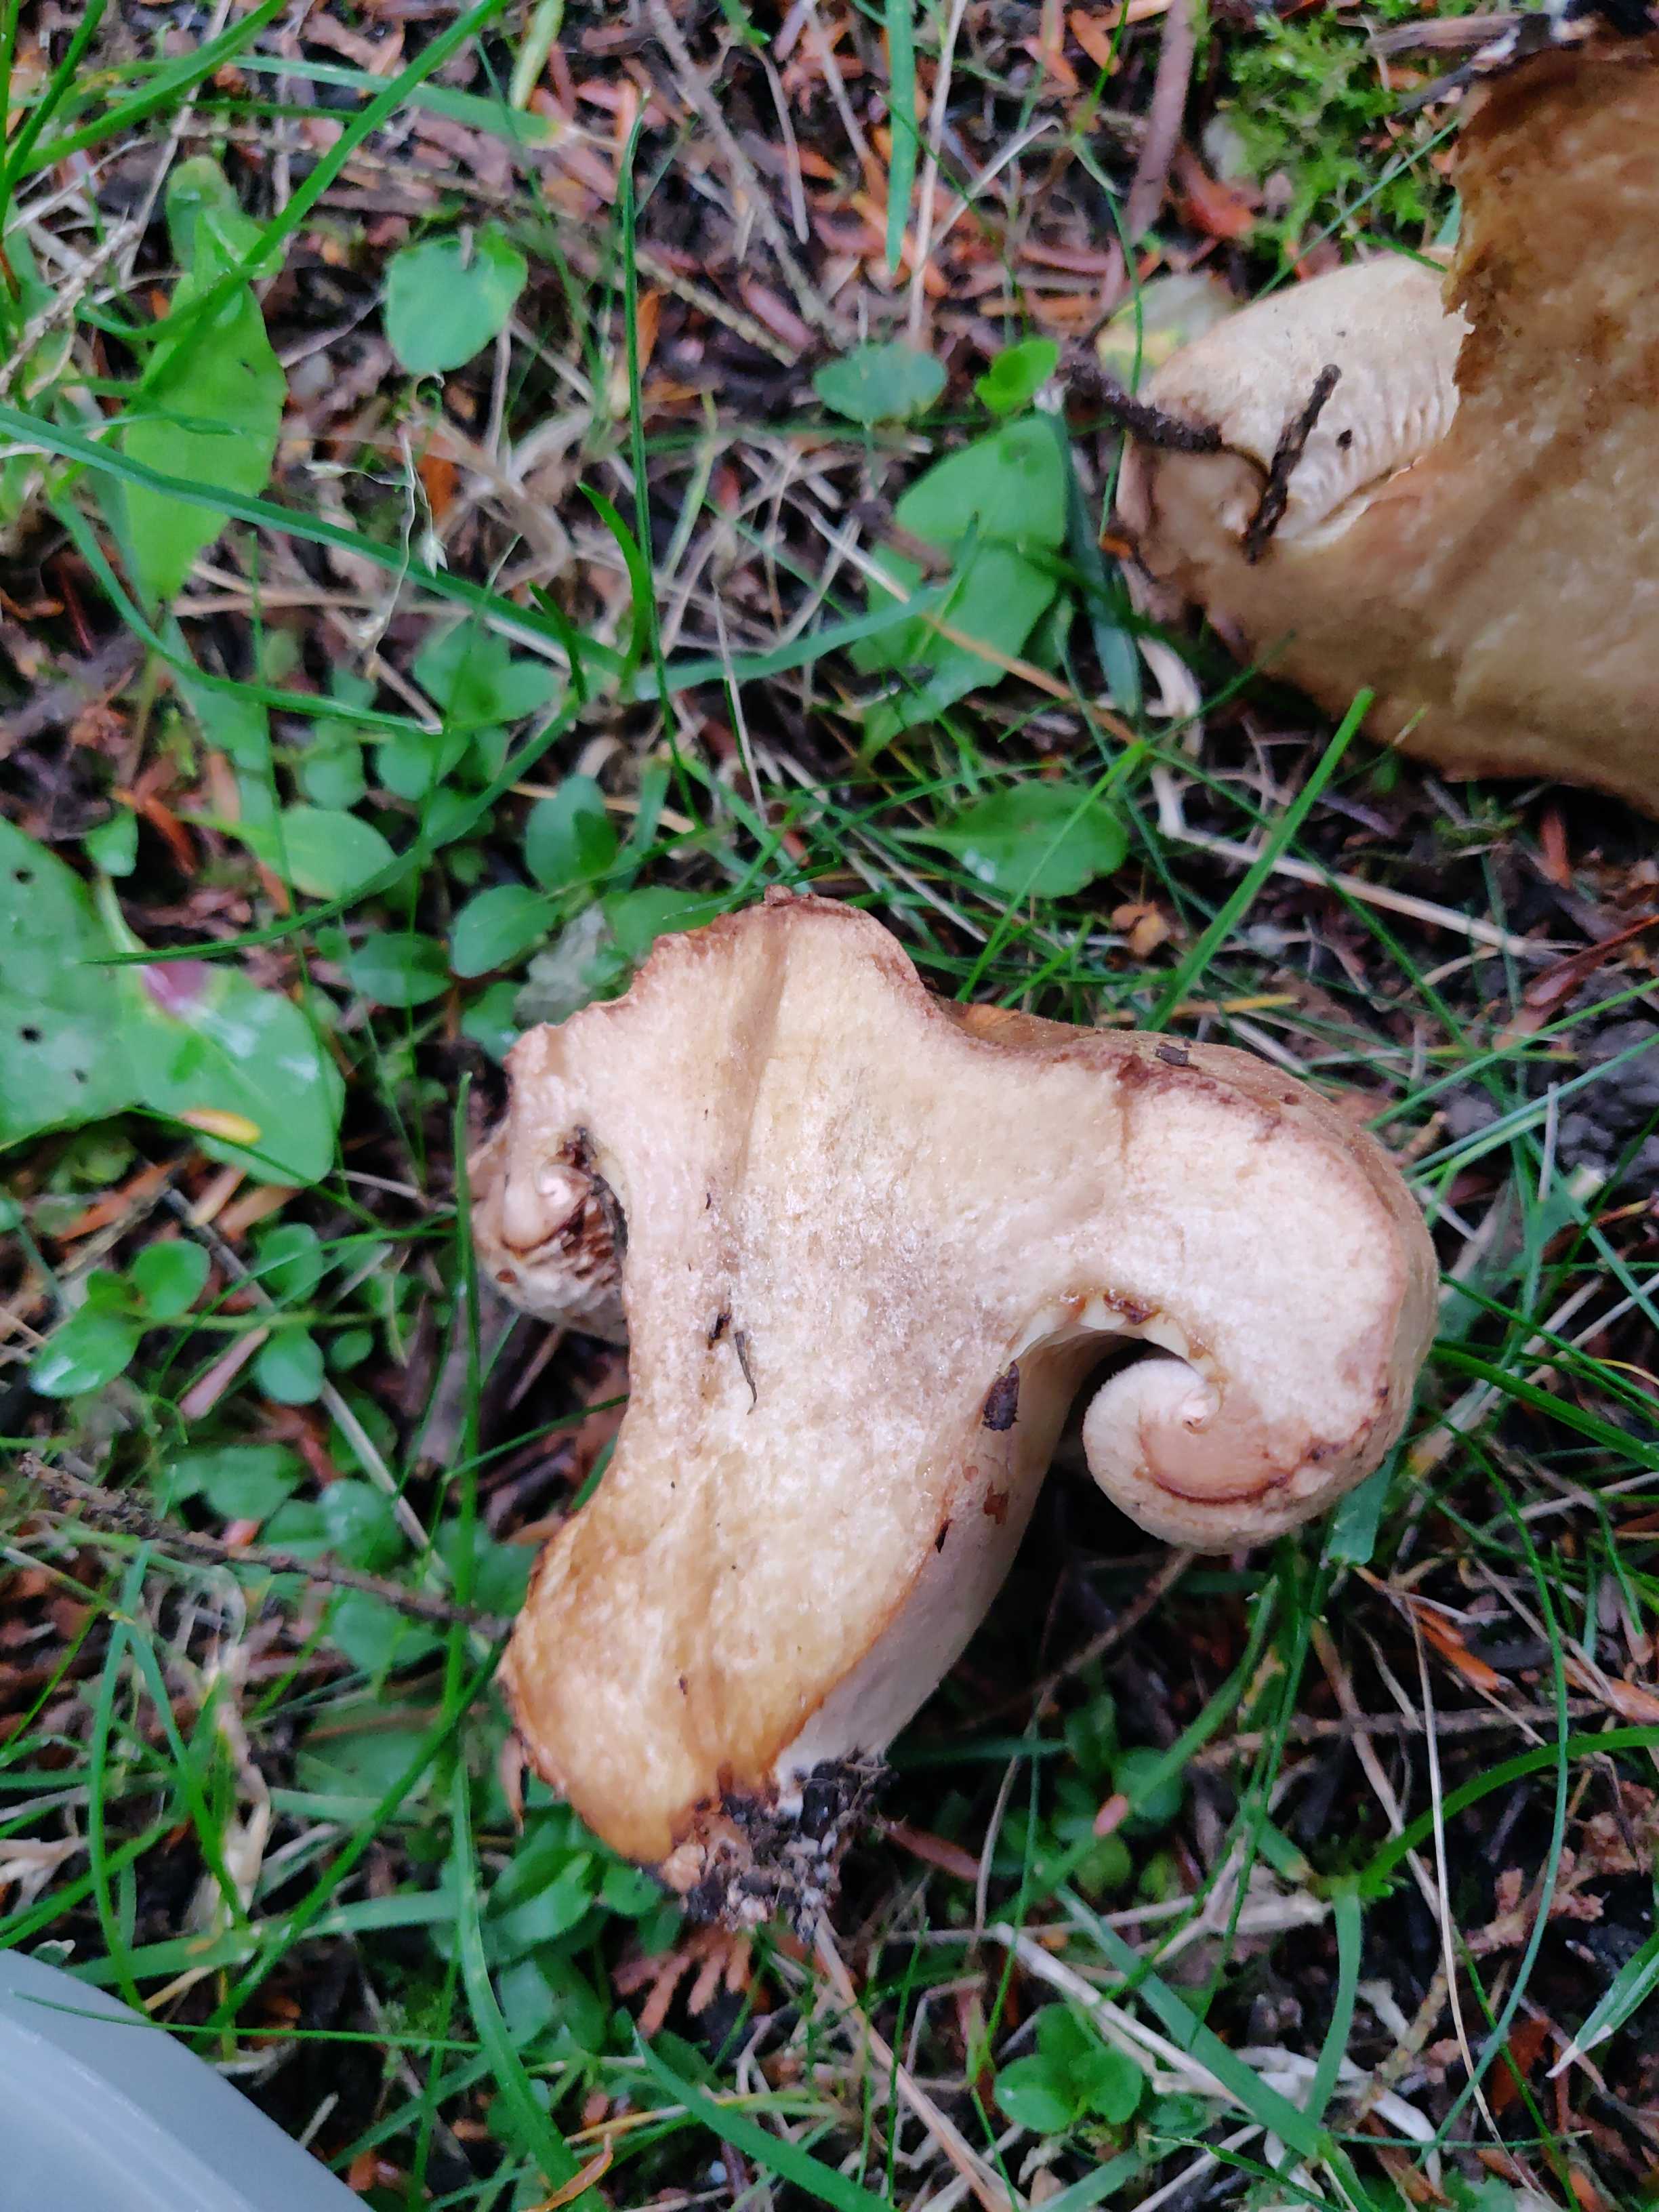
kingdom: Fungi
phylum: Basidiomycota
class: Agaricomycetes
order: Boletales
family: Paxillaceae
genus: Paxillus
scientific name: Paxillus
